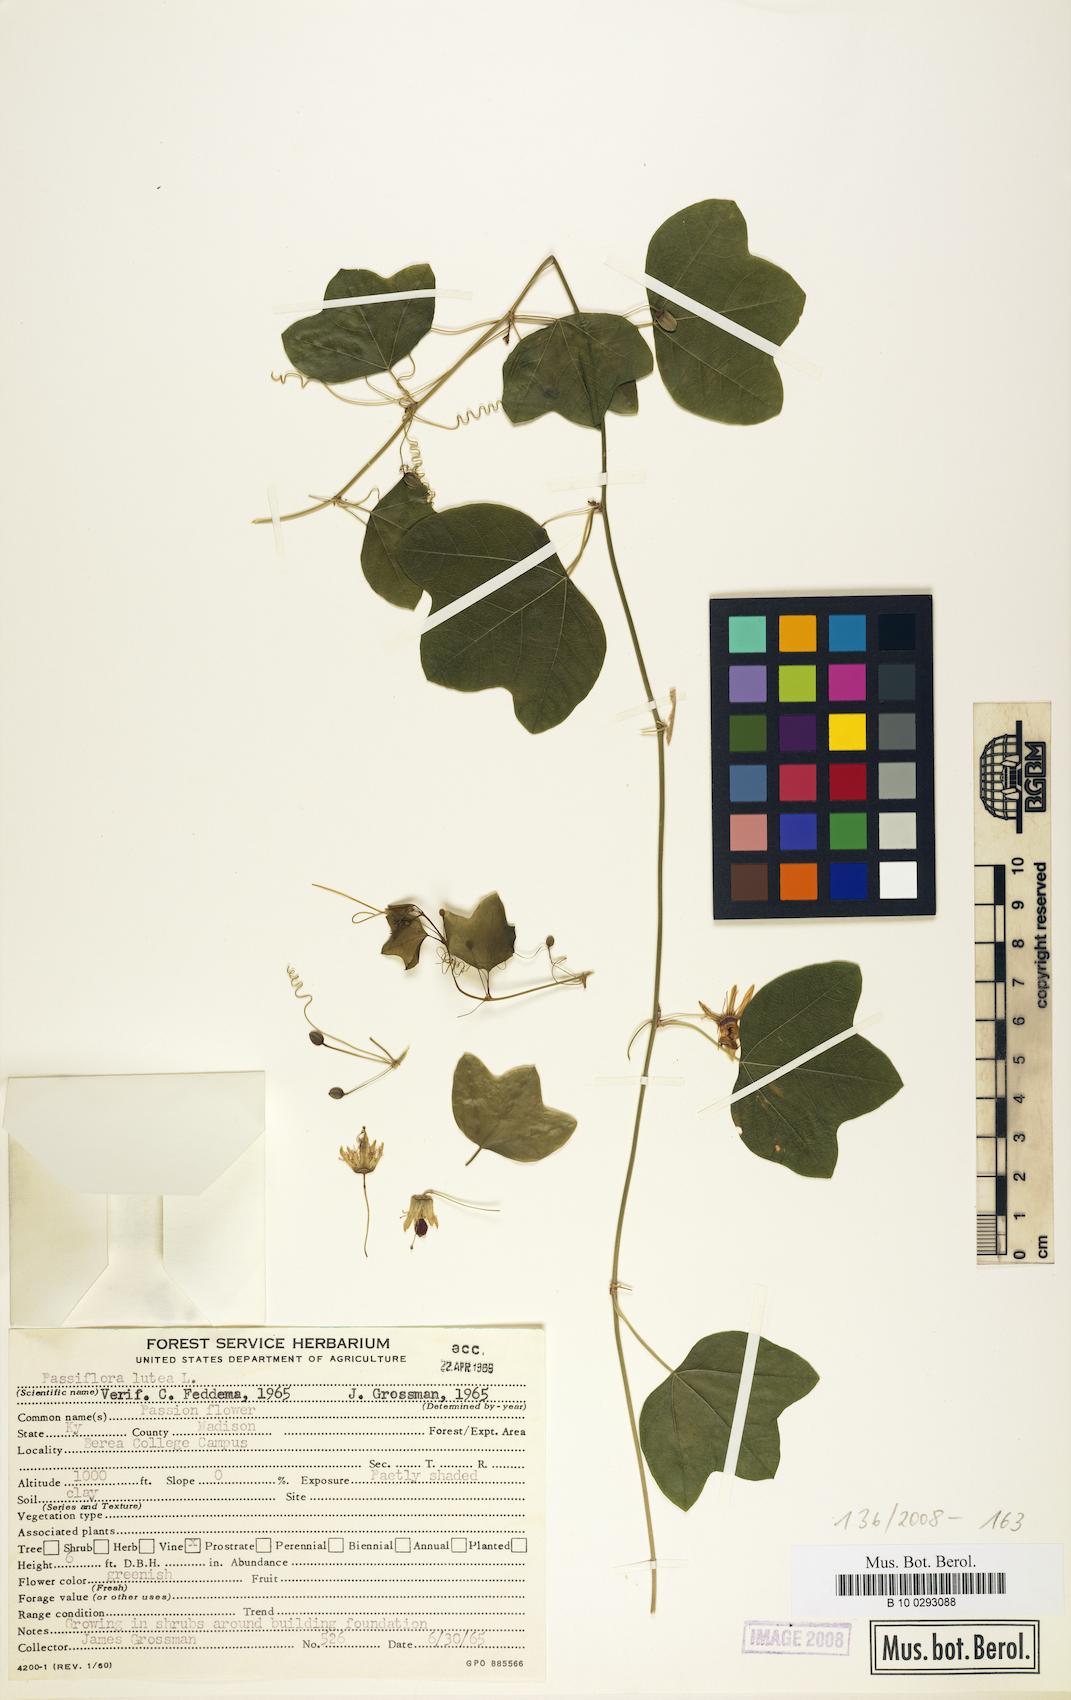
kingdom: Plantae
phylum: Tracheophyta
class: Magnoliopsida
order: Malpighiales
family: Passifloraceae
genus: Passiflora
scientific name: Passiflora gracillima
